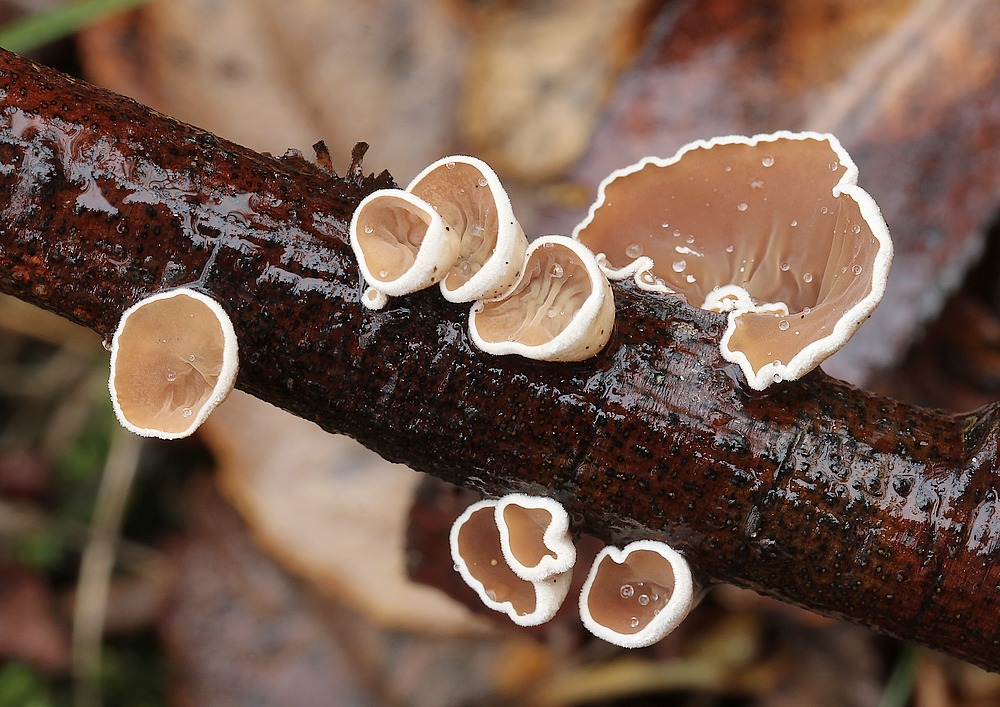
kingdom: Fungi
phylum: Basidiomycota
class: Agaricomycetes
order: Agaricales
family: Schizophyllaceae
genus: Schizophyllum
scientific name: Schizophyllum amplum
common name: poppel-hængeøre
